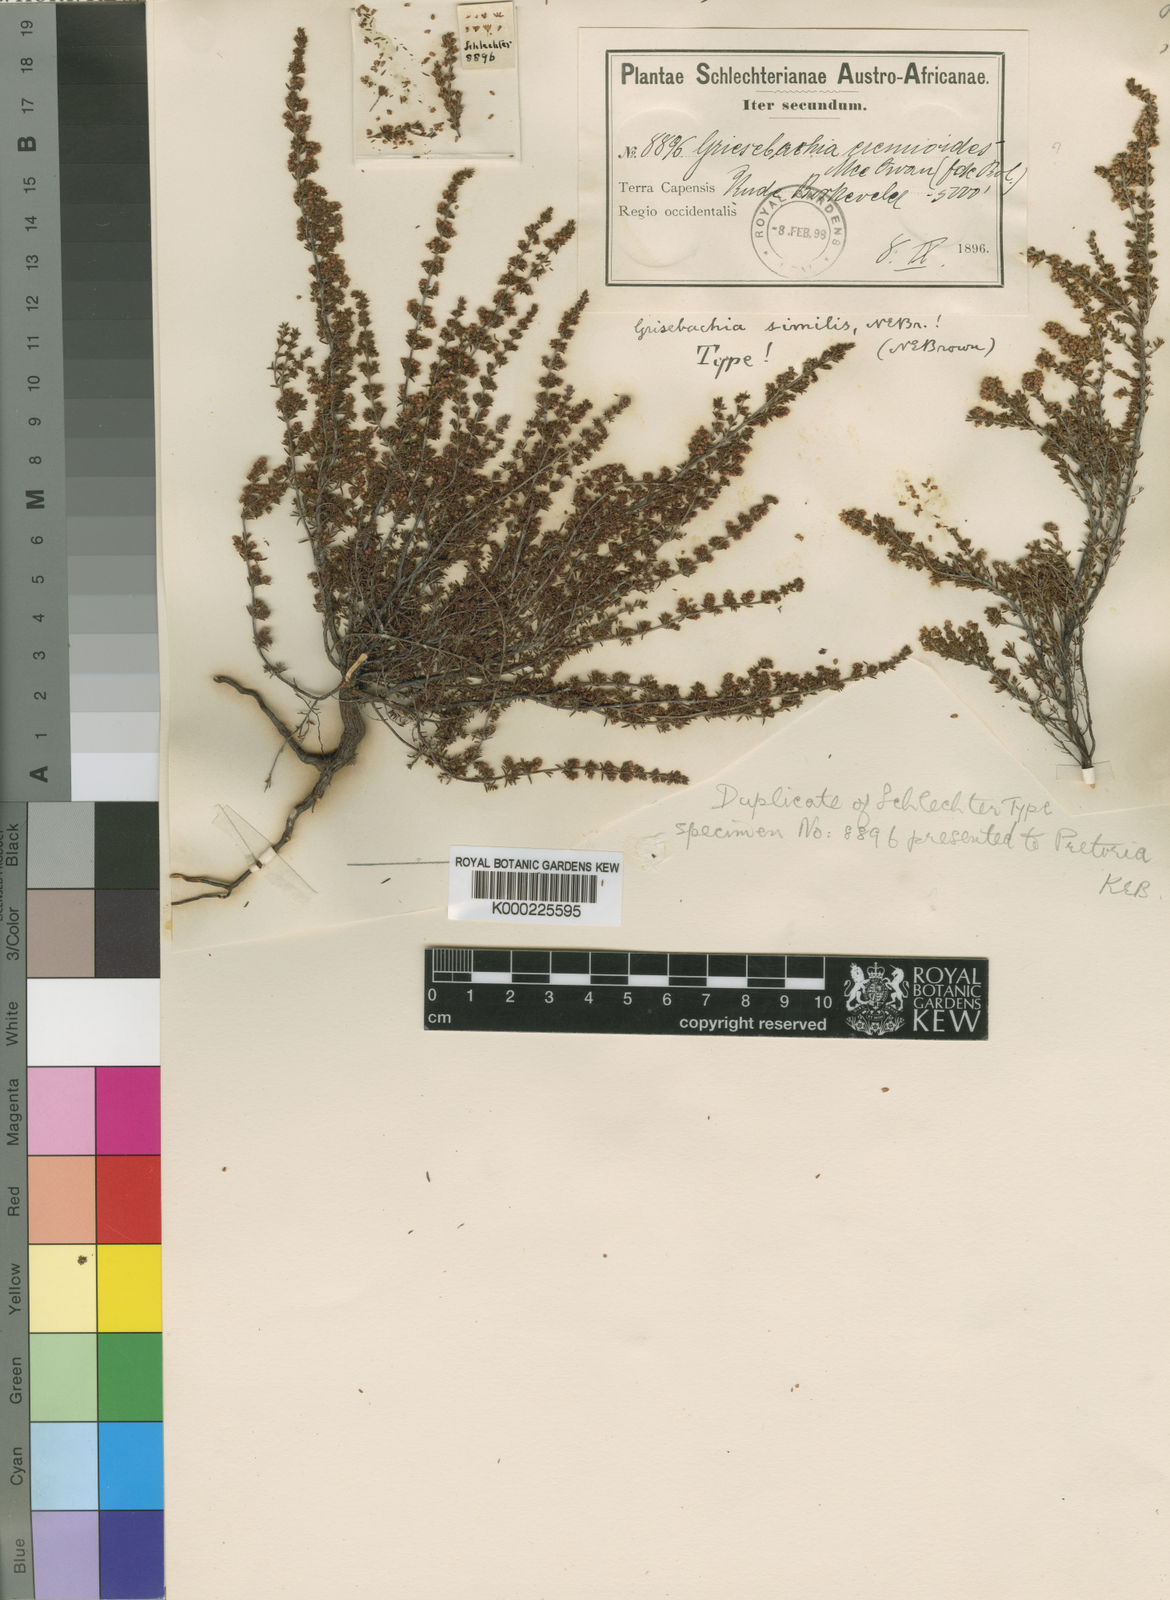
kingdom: Plantae
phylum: Tracheophyta
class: Magnoliopsida
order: Ericales
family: Ericaceae
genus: Erica
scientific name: Erica eremioides
